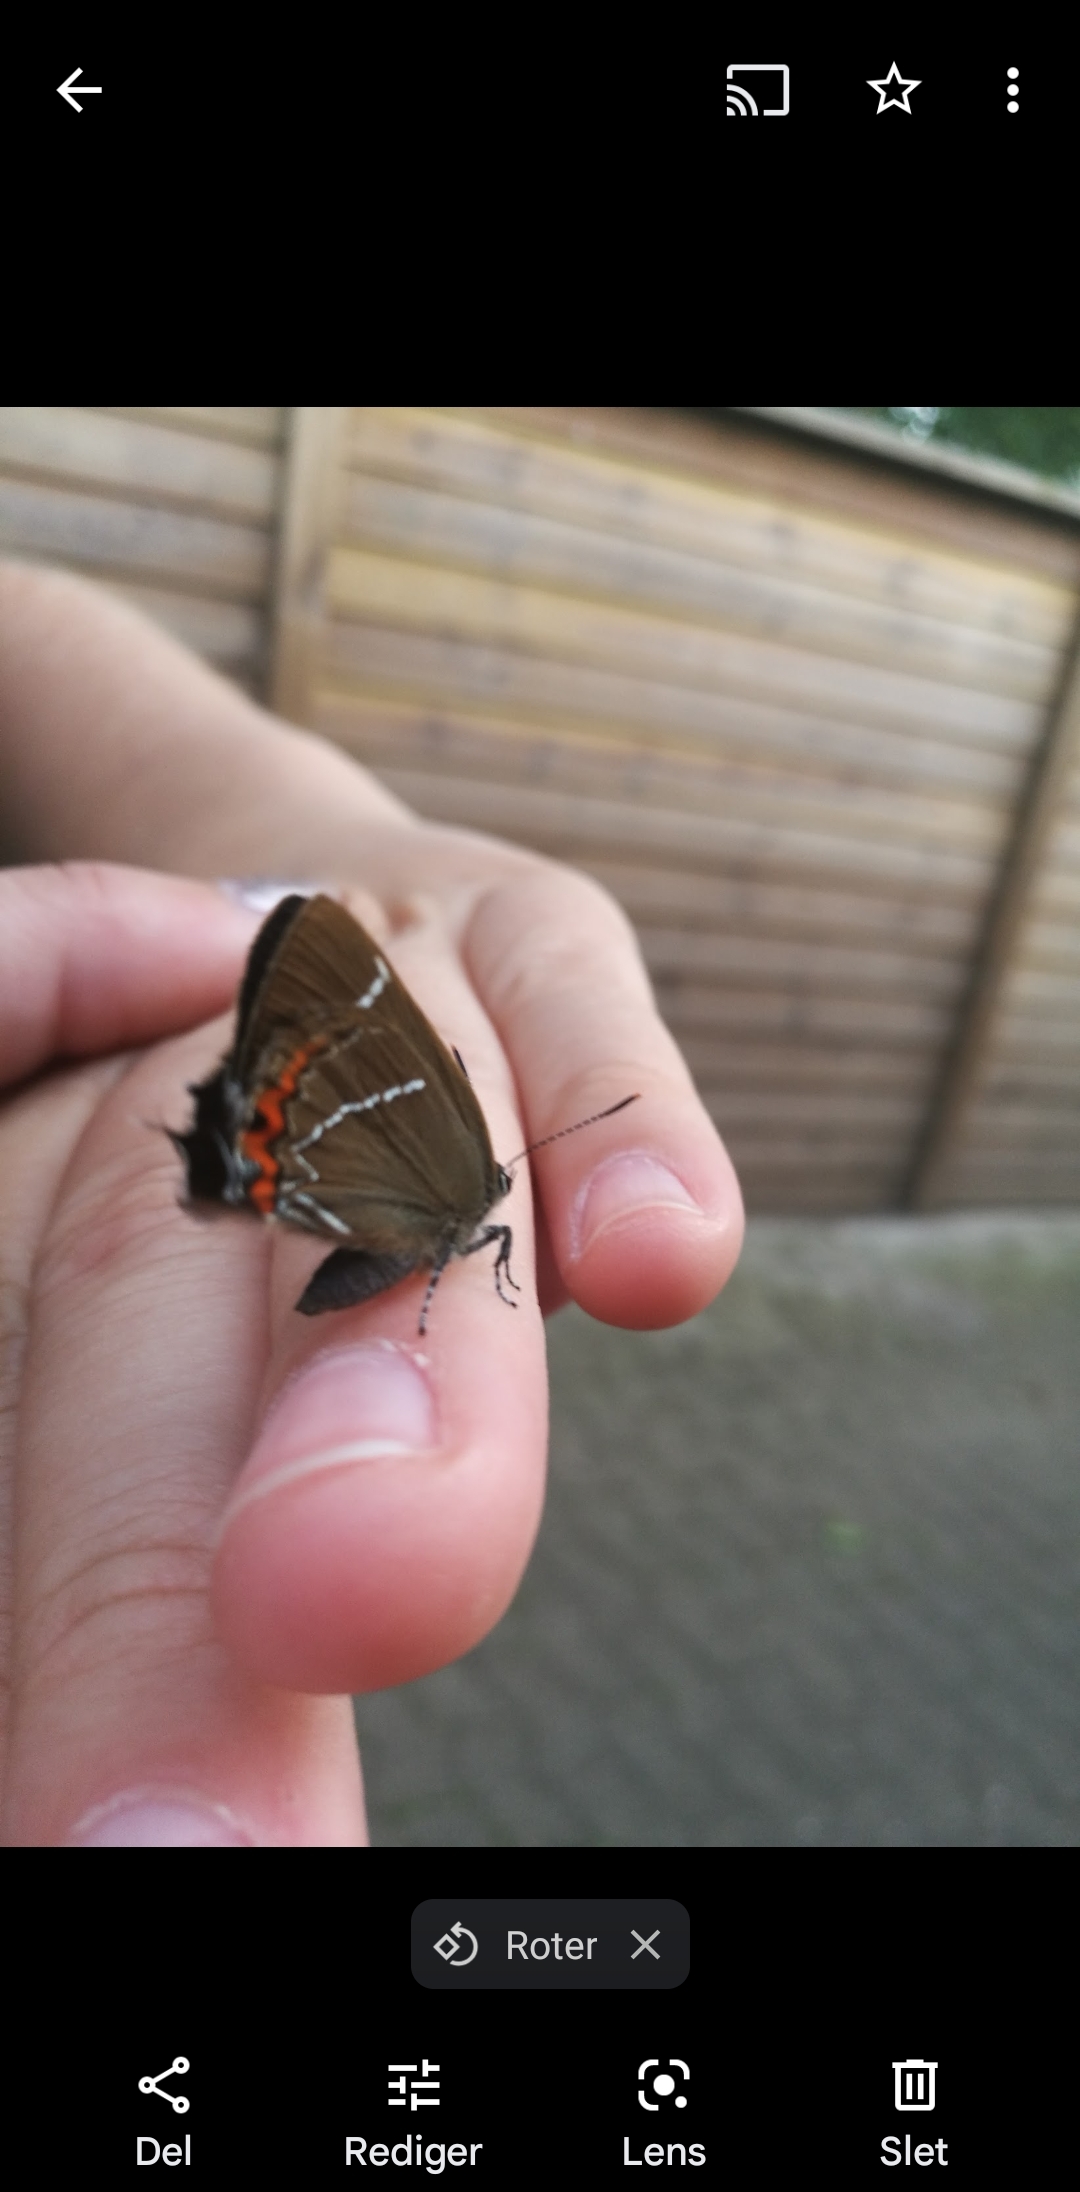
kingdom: Animalia
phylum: Arthropoda
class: Insecta
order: Lepidoptera
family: Lycaenidae
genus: Satyrium
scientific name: Satyrium w-album
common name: Det hvide W
